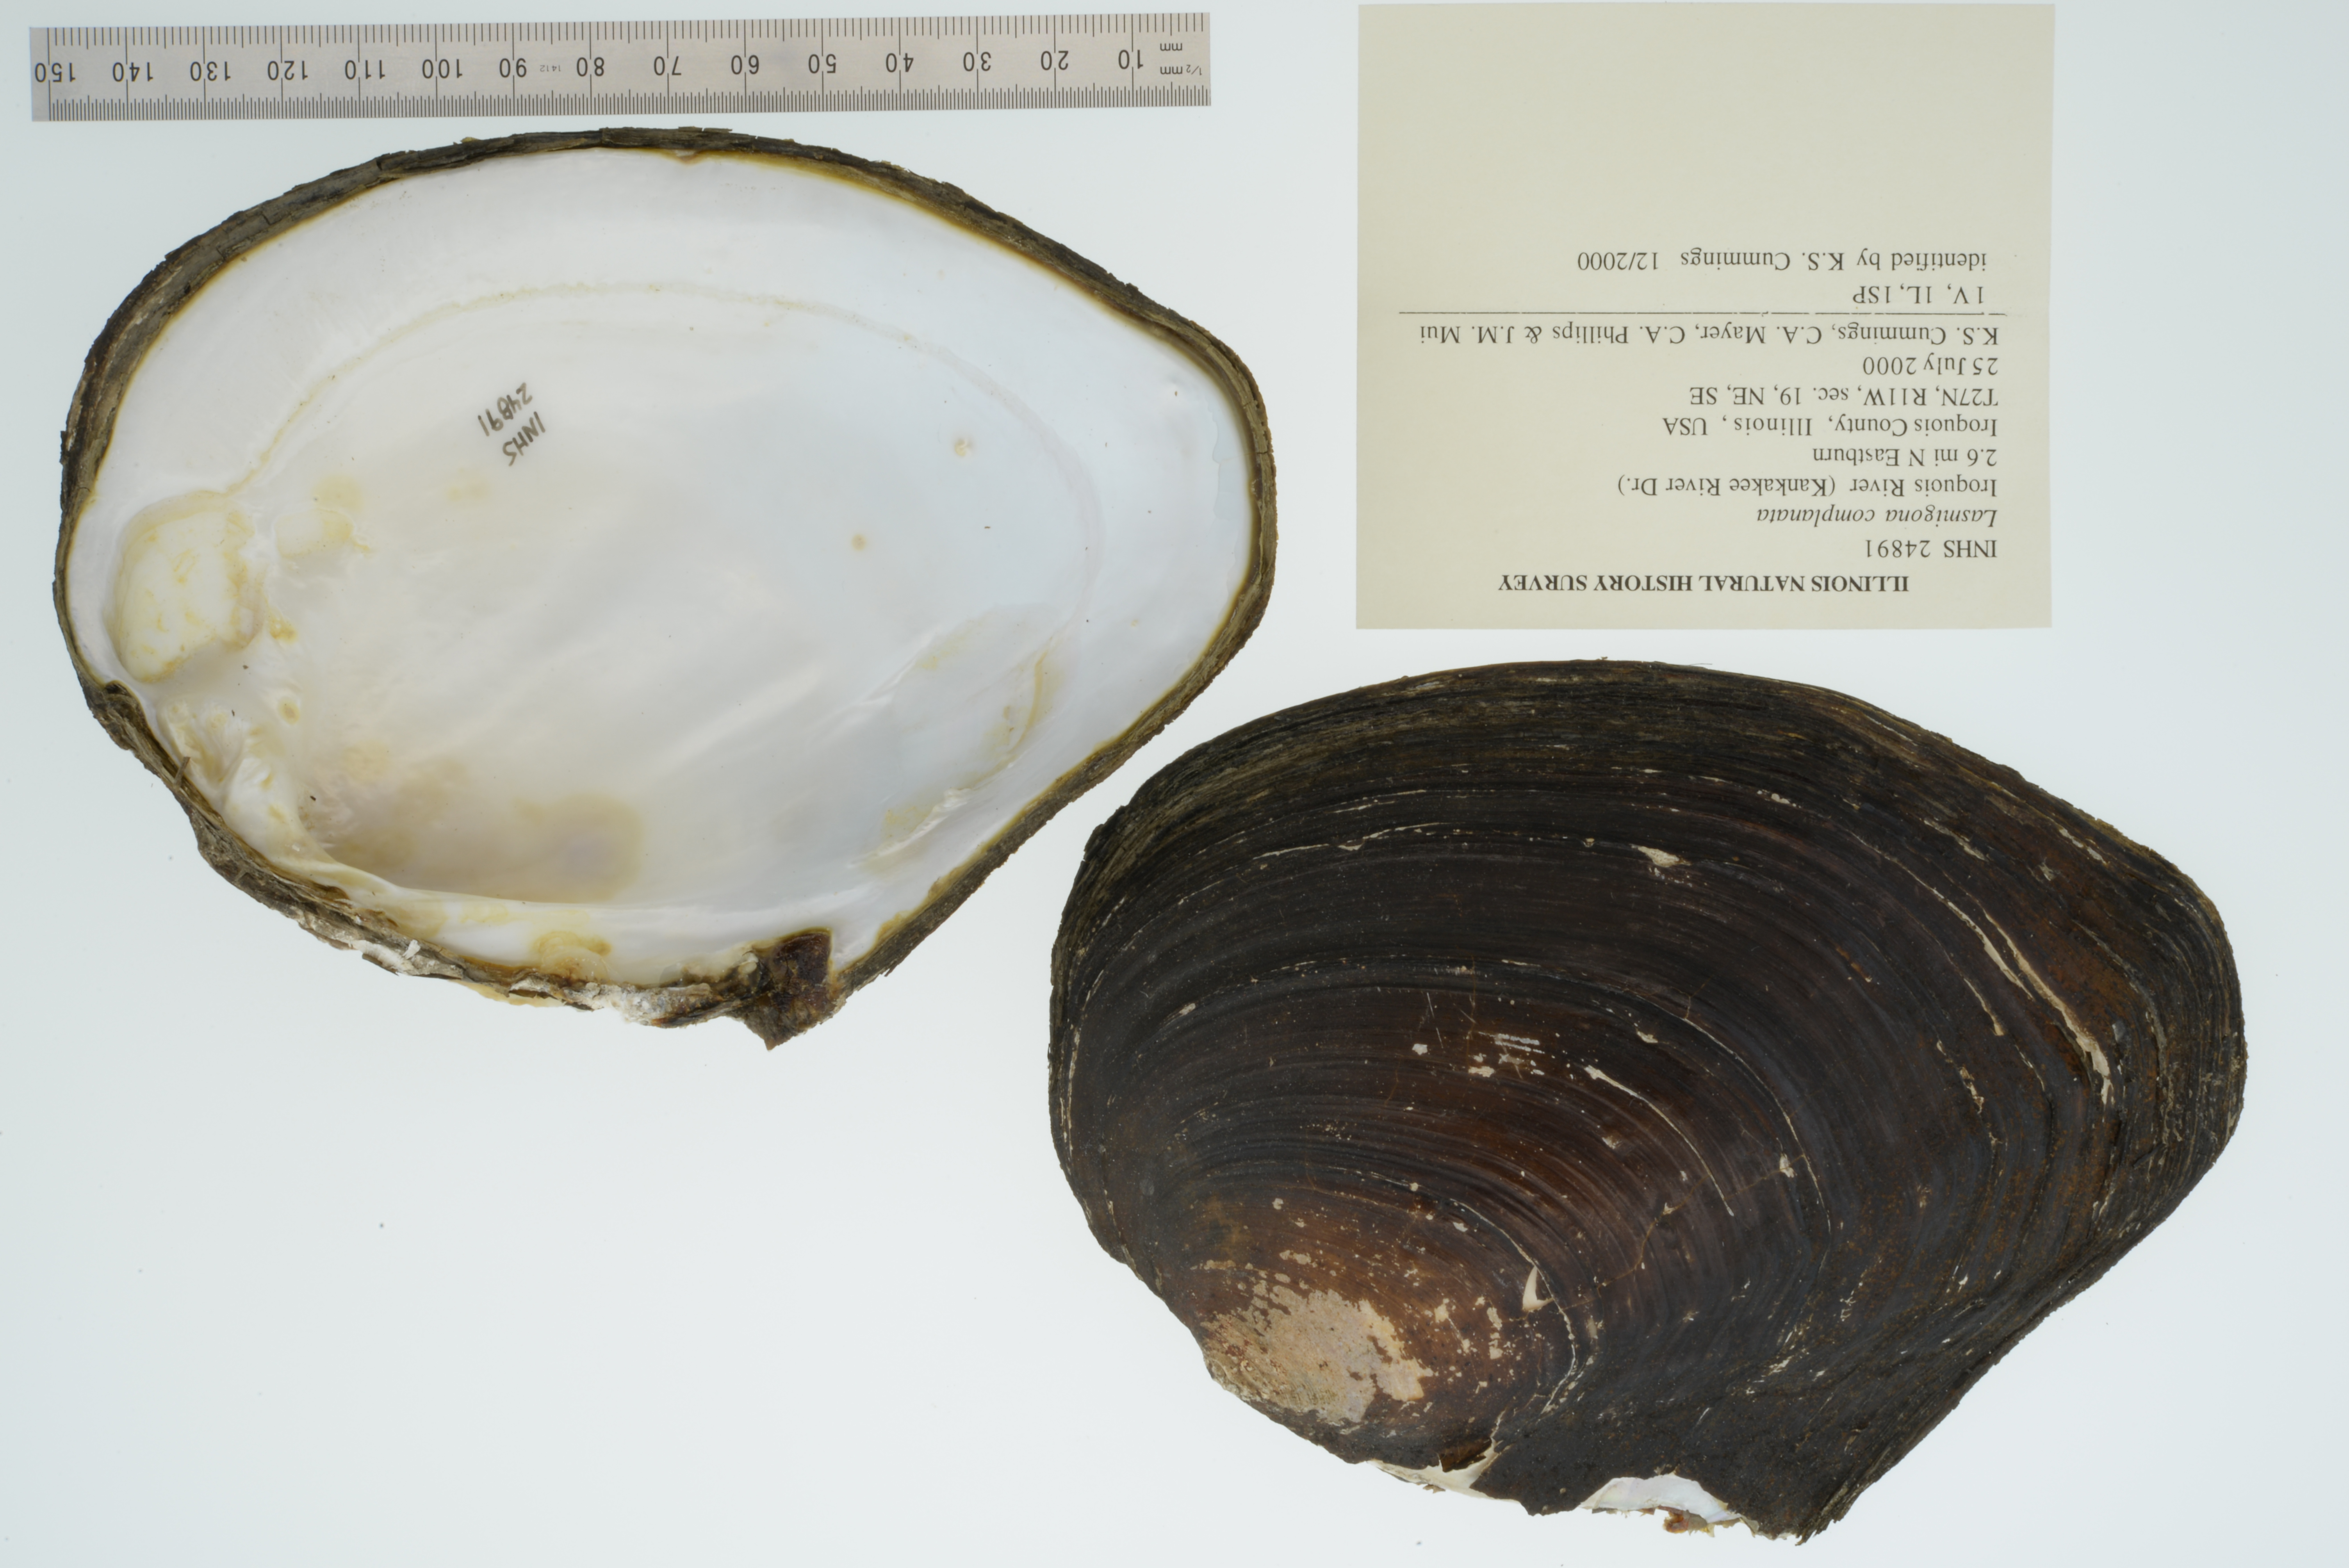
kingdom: Animalia
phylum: Mollusca
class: Bivalvia
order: Unionida
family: Unionidae
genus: Lasmigona
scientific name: Lasmigona complanata
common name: White heelsplitter
